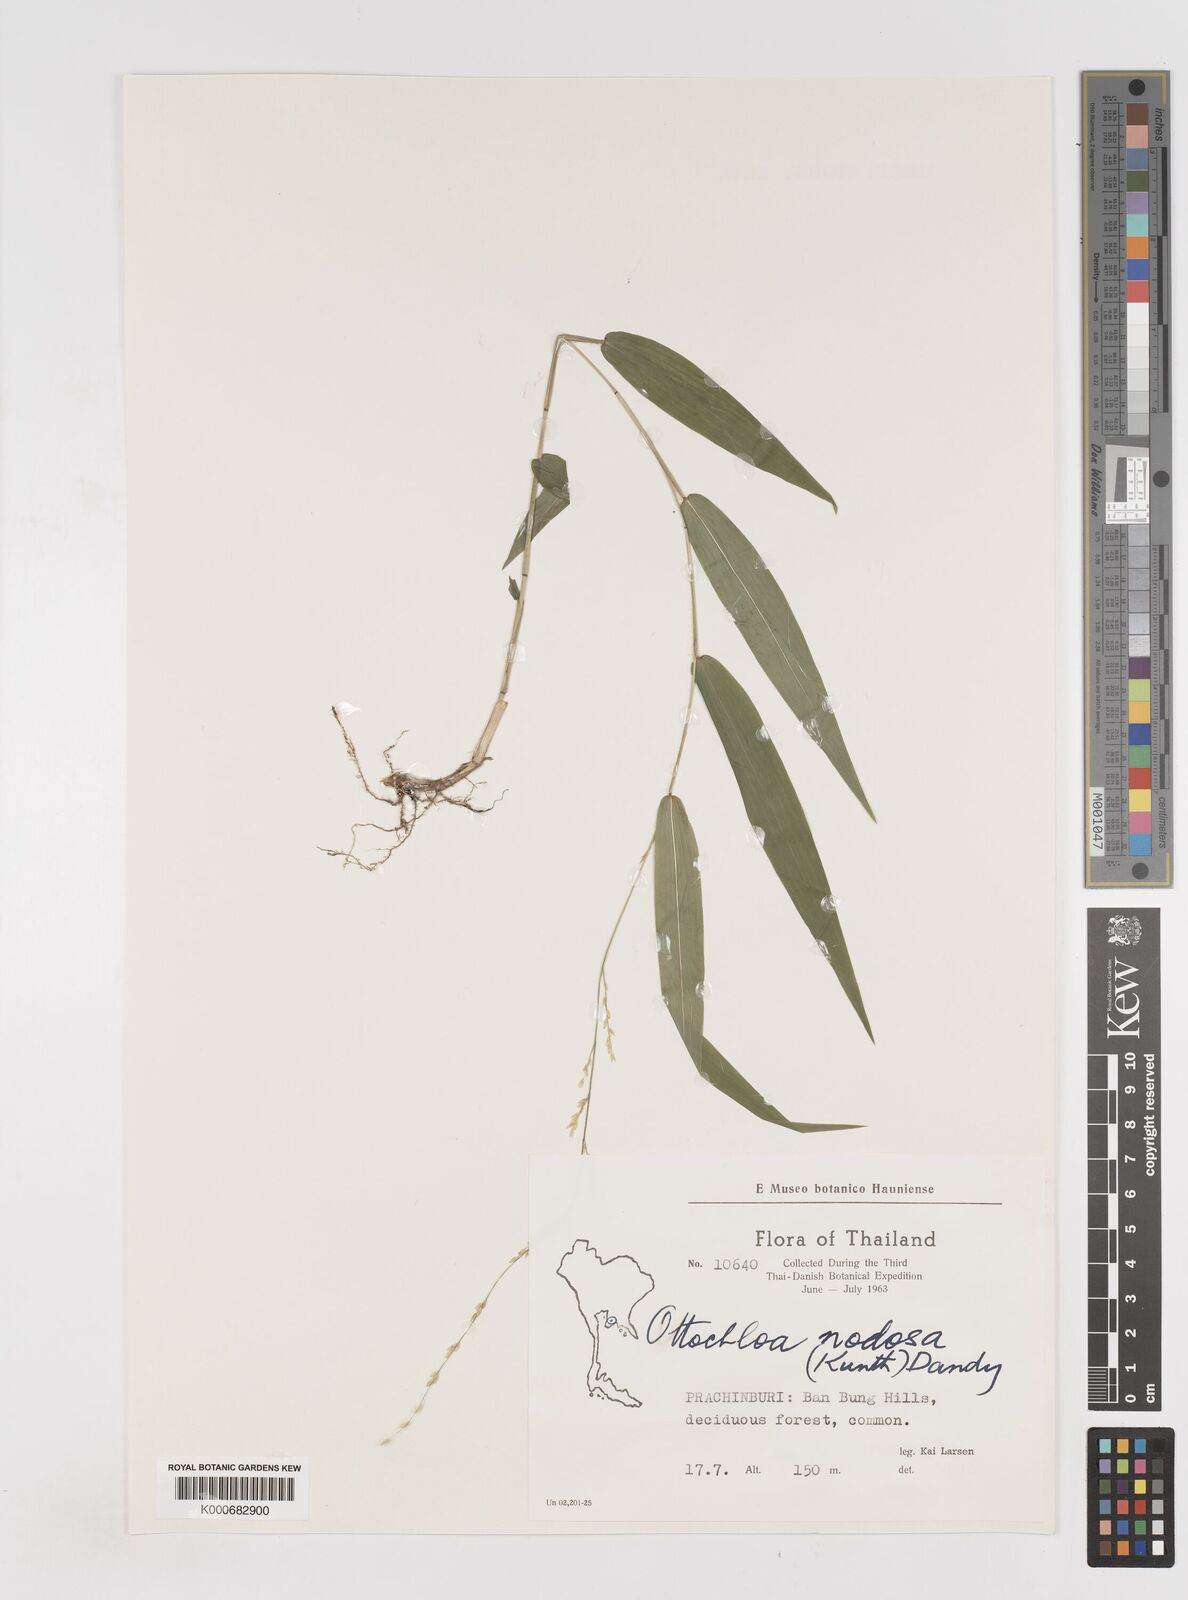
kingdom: Plantae
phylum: Tracheophyta
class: Liliopsida
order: Poales
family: Poaceae
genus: Ottochloa
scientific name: Ottochloa nodosa
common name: Slender-panic grass
